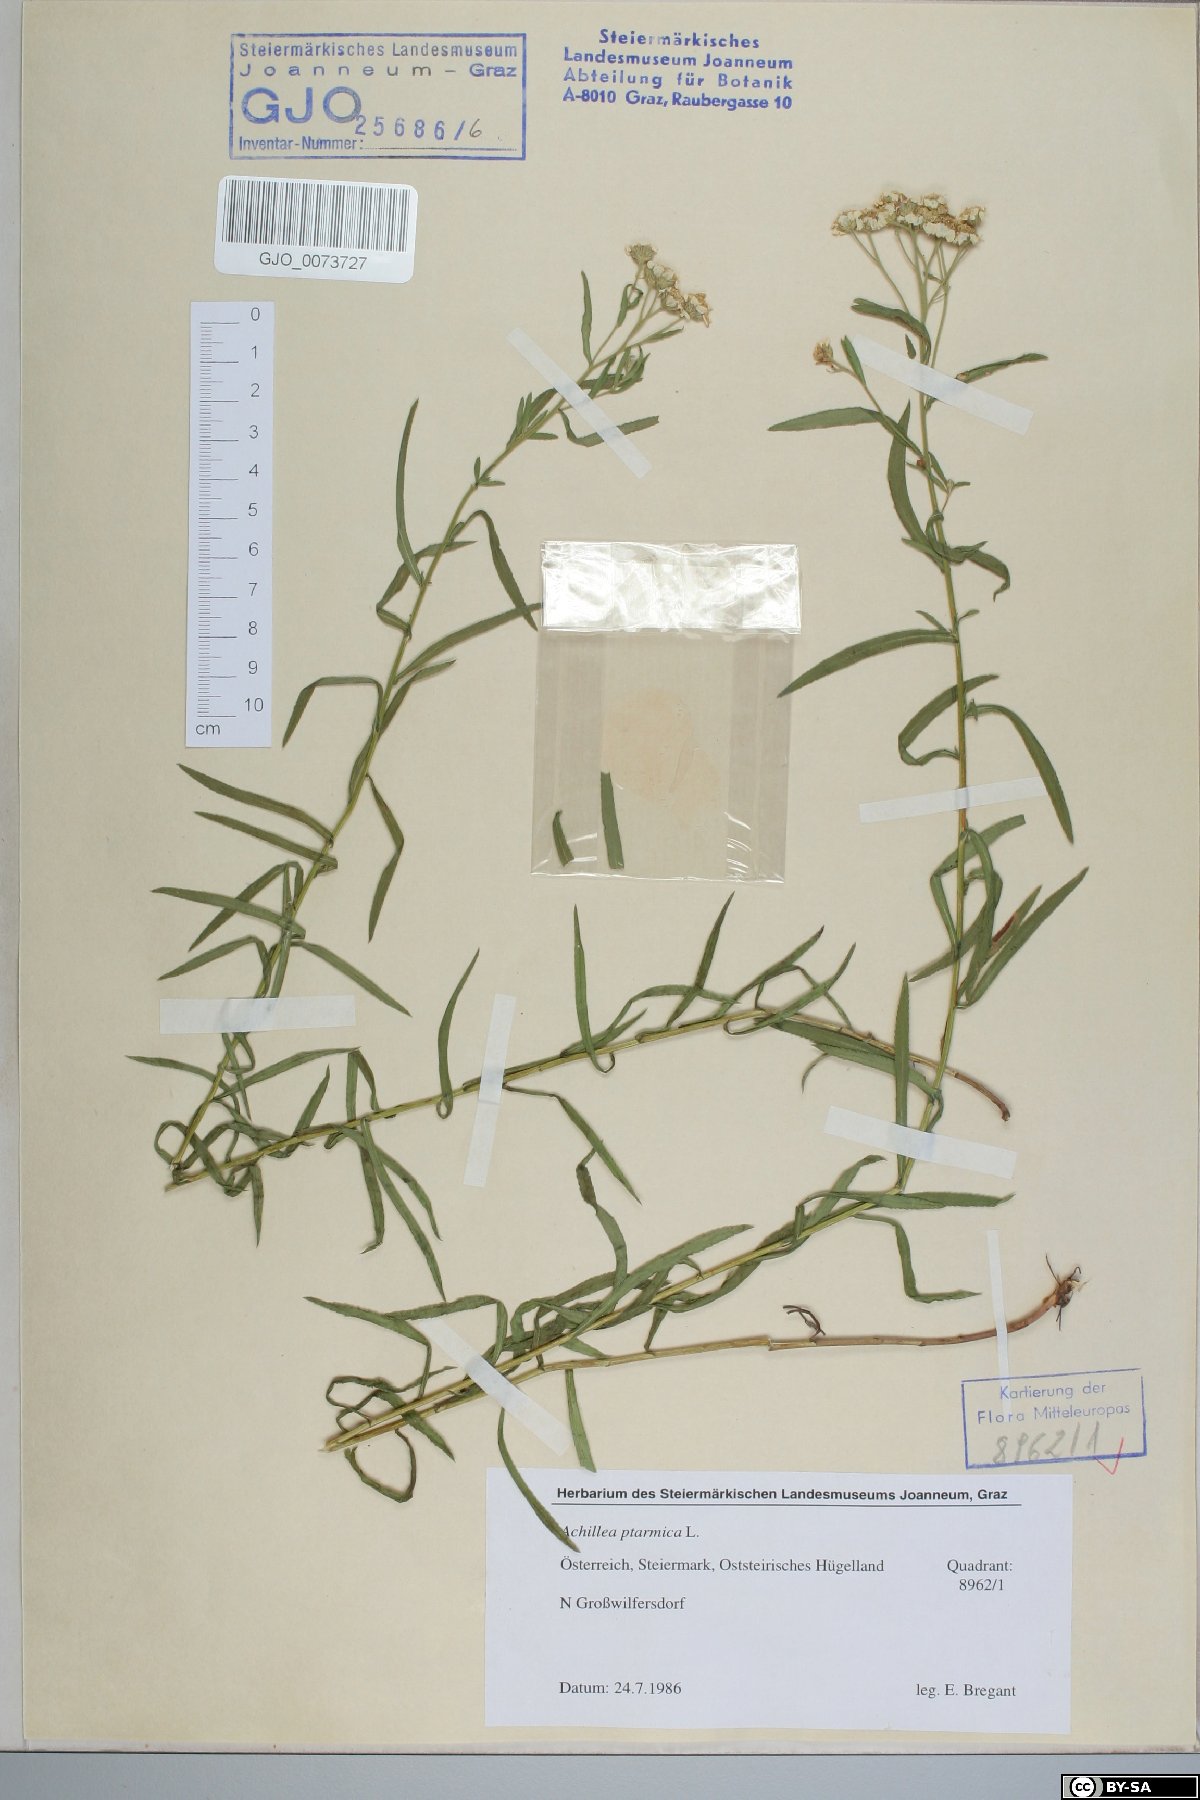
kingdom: Plantae
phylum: Tracheophyta
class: Magnoliopsida
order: Asterales
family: Asteraceae
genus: Achillea
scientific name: Achillea ptarmica
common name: Sneezeweed
